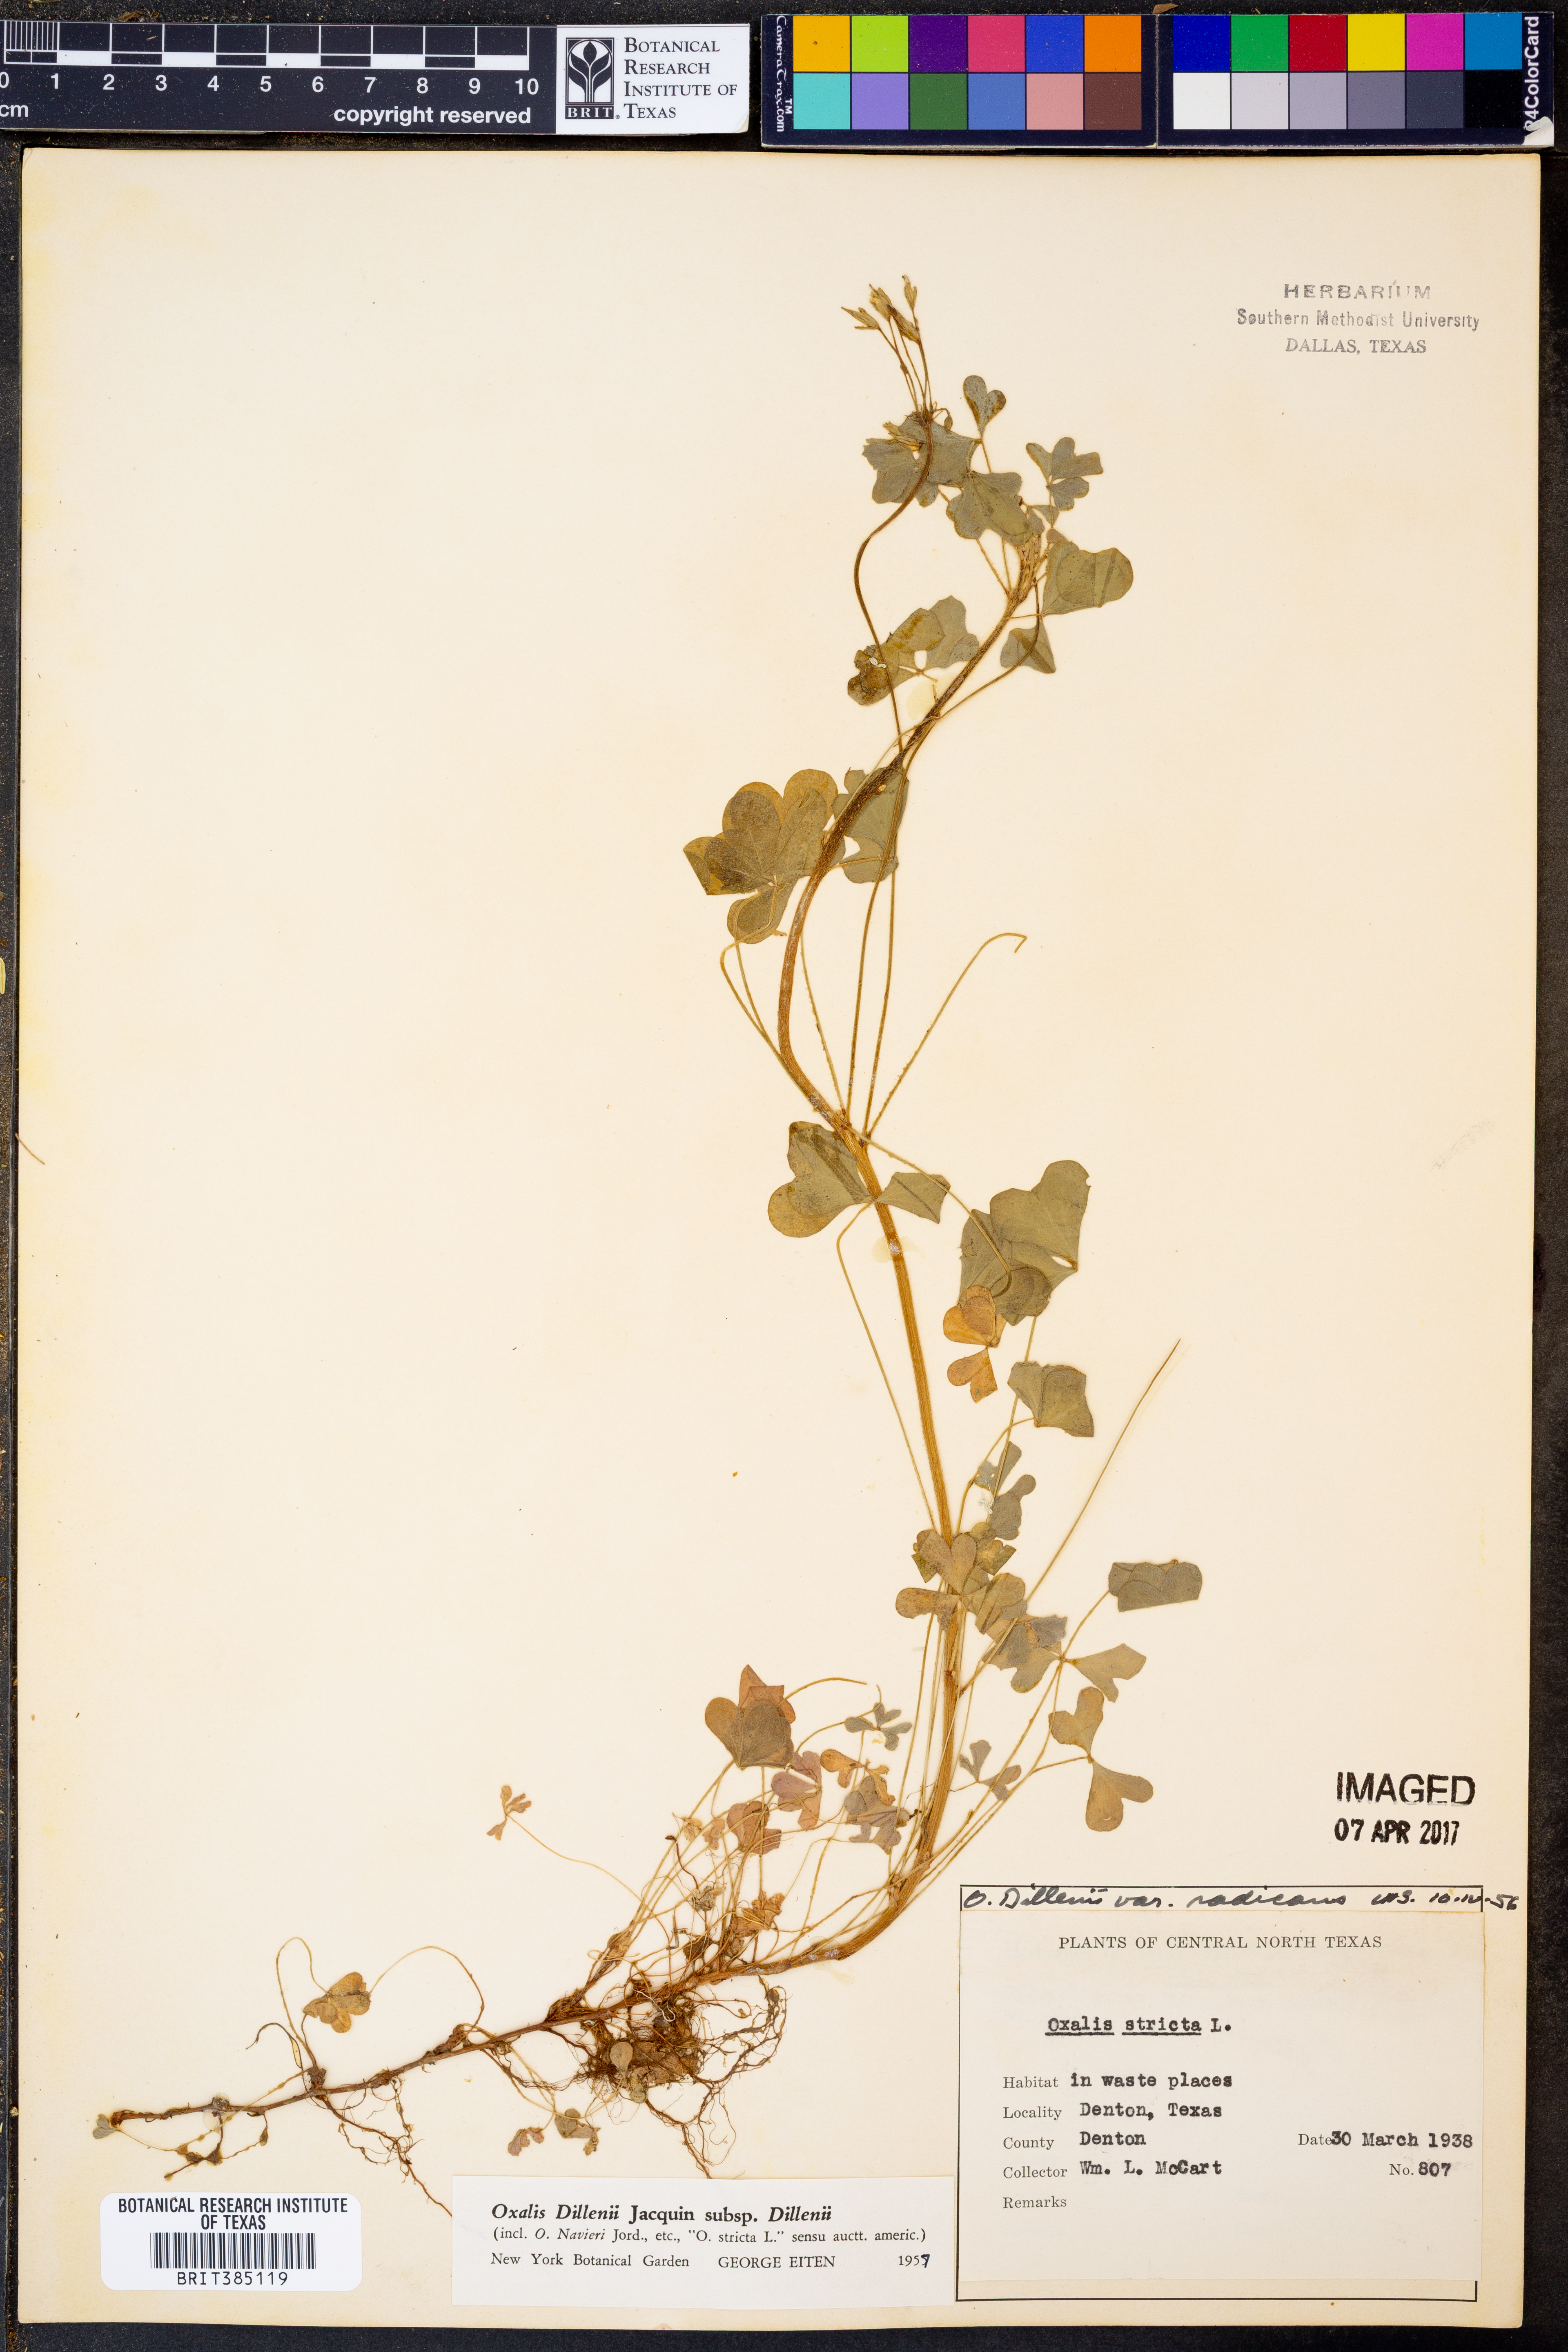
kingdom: Plantae
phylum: Tracheophyta
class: Magnoliopsida
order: Oxalidales
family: Oxalidaceae
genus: Oxalis
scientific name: Oxalis dillenii
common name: Sussex yellow-sorrel
